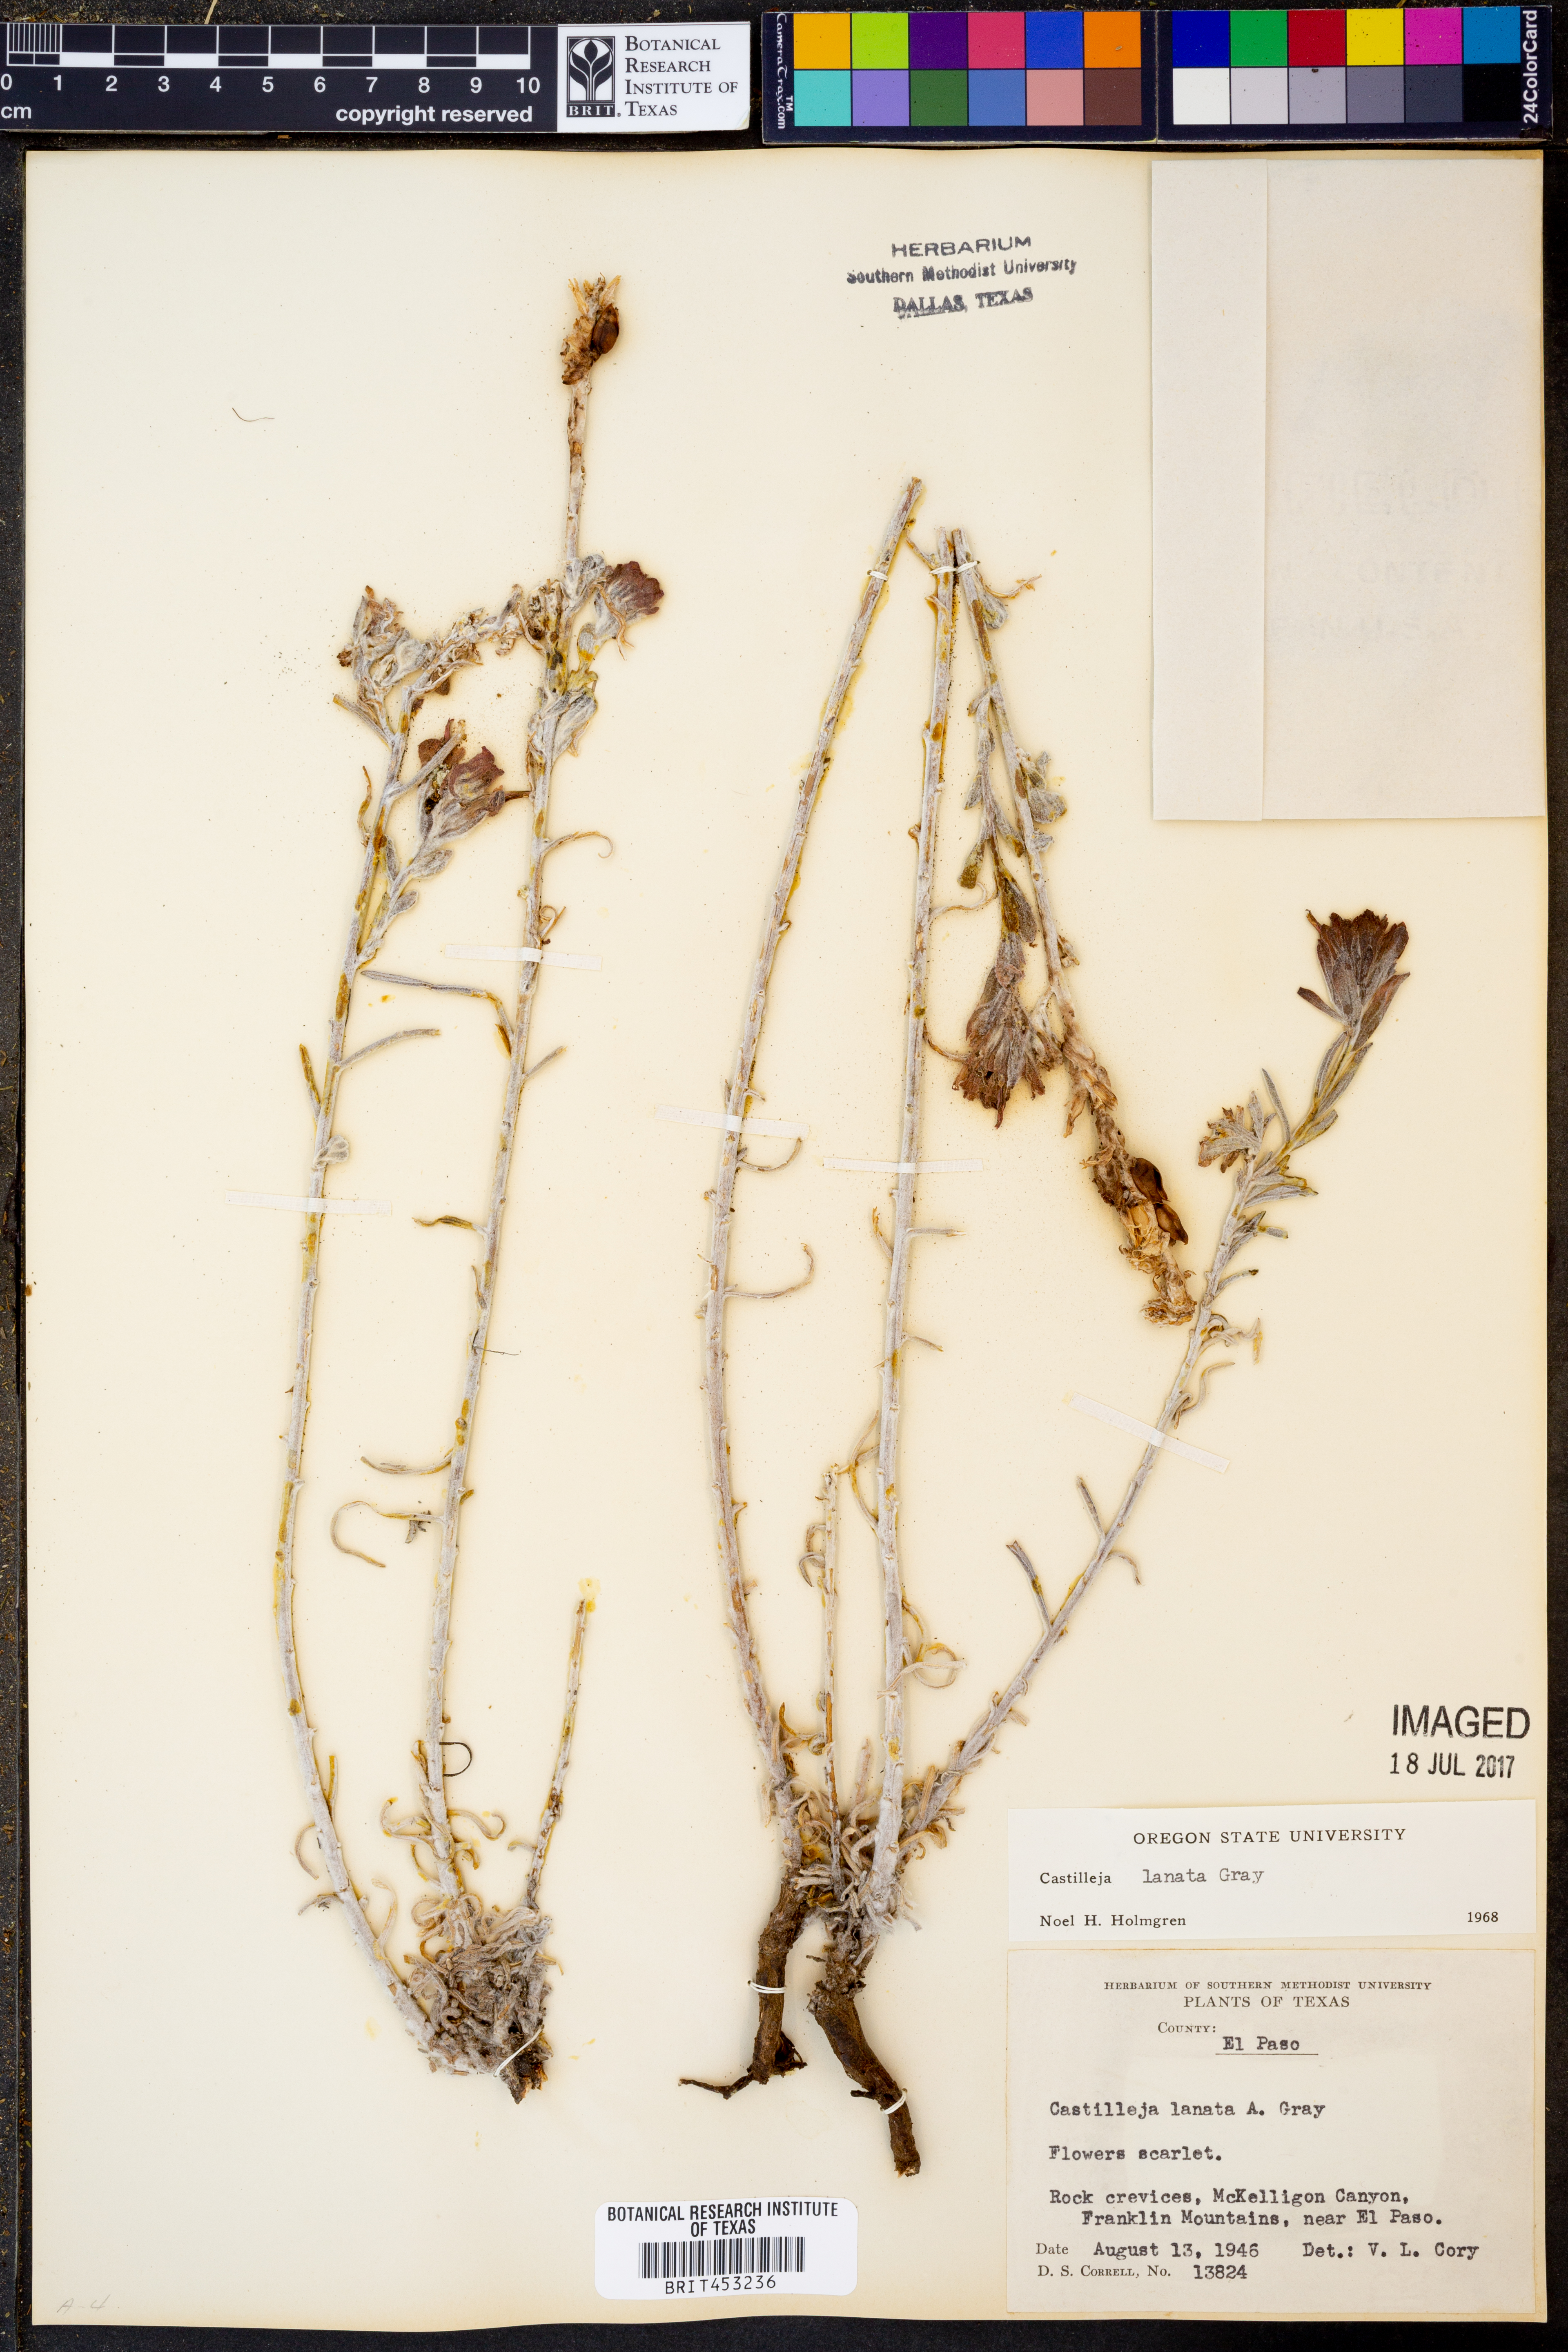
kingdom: Plantae
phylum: Tracheophyta
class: Magnoliopsida
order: Lamiales
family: Orobanchaceae
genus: Castilleja
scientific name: Castilleja lanata
